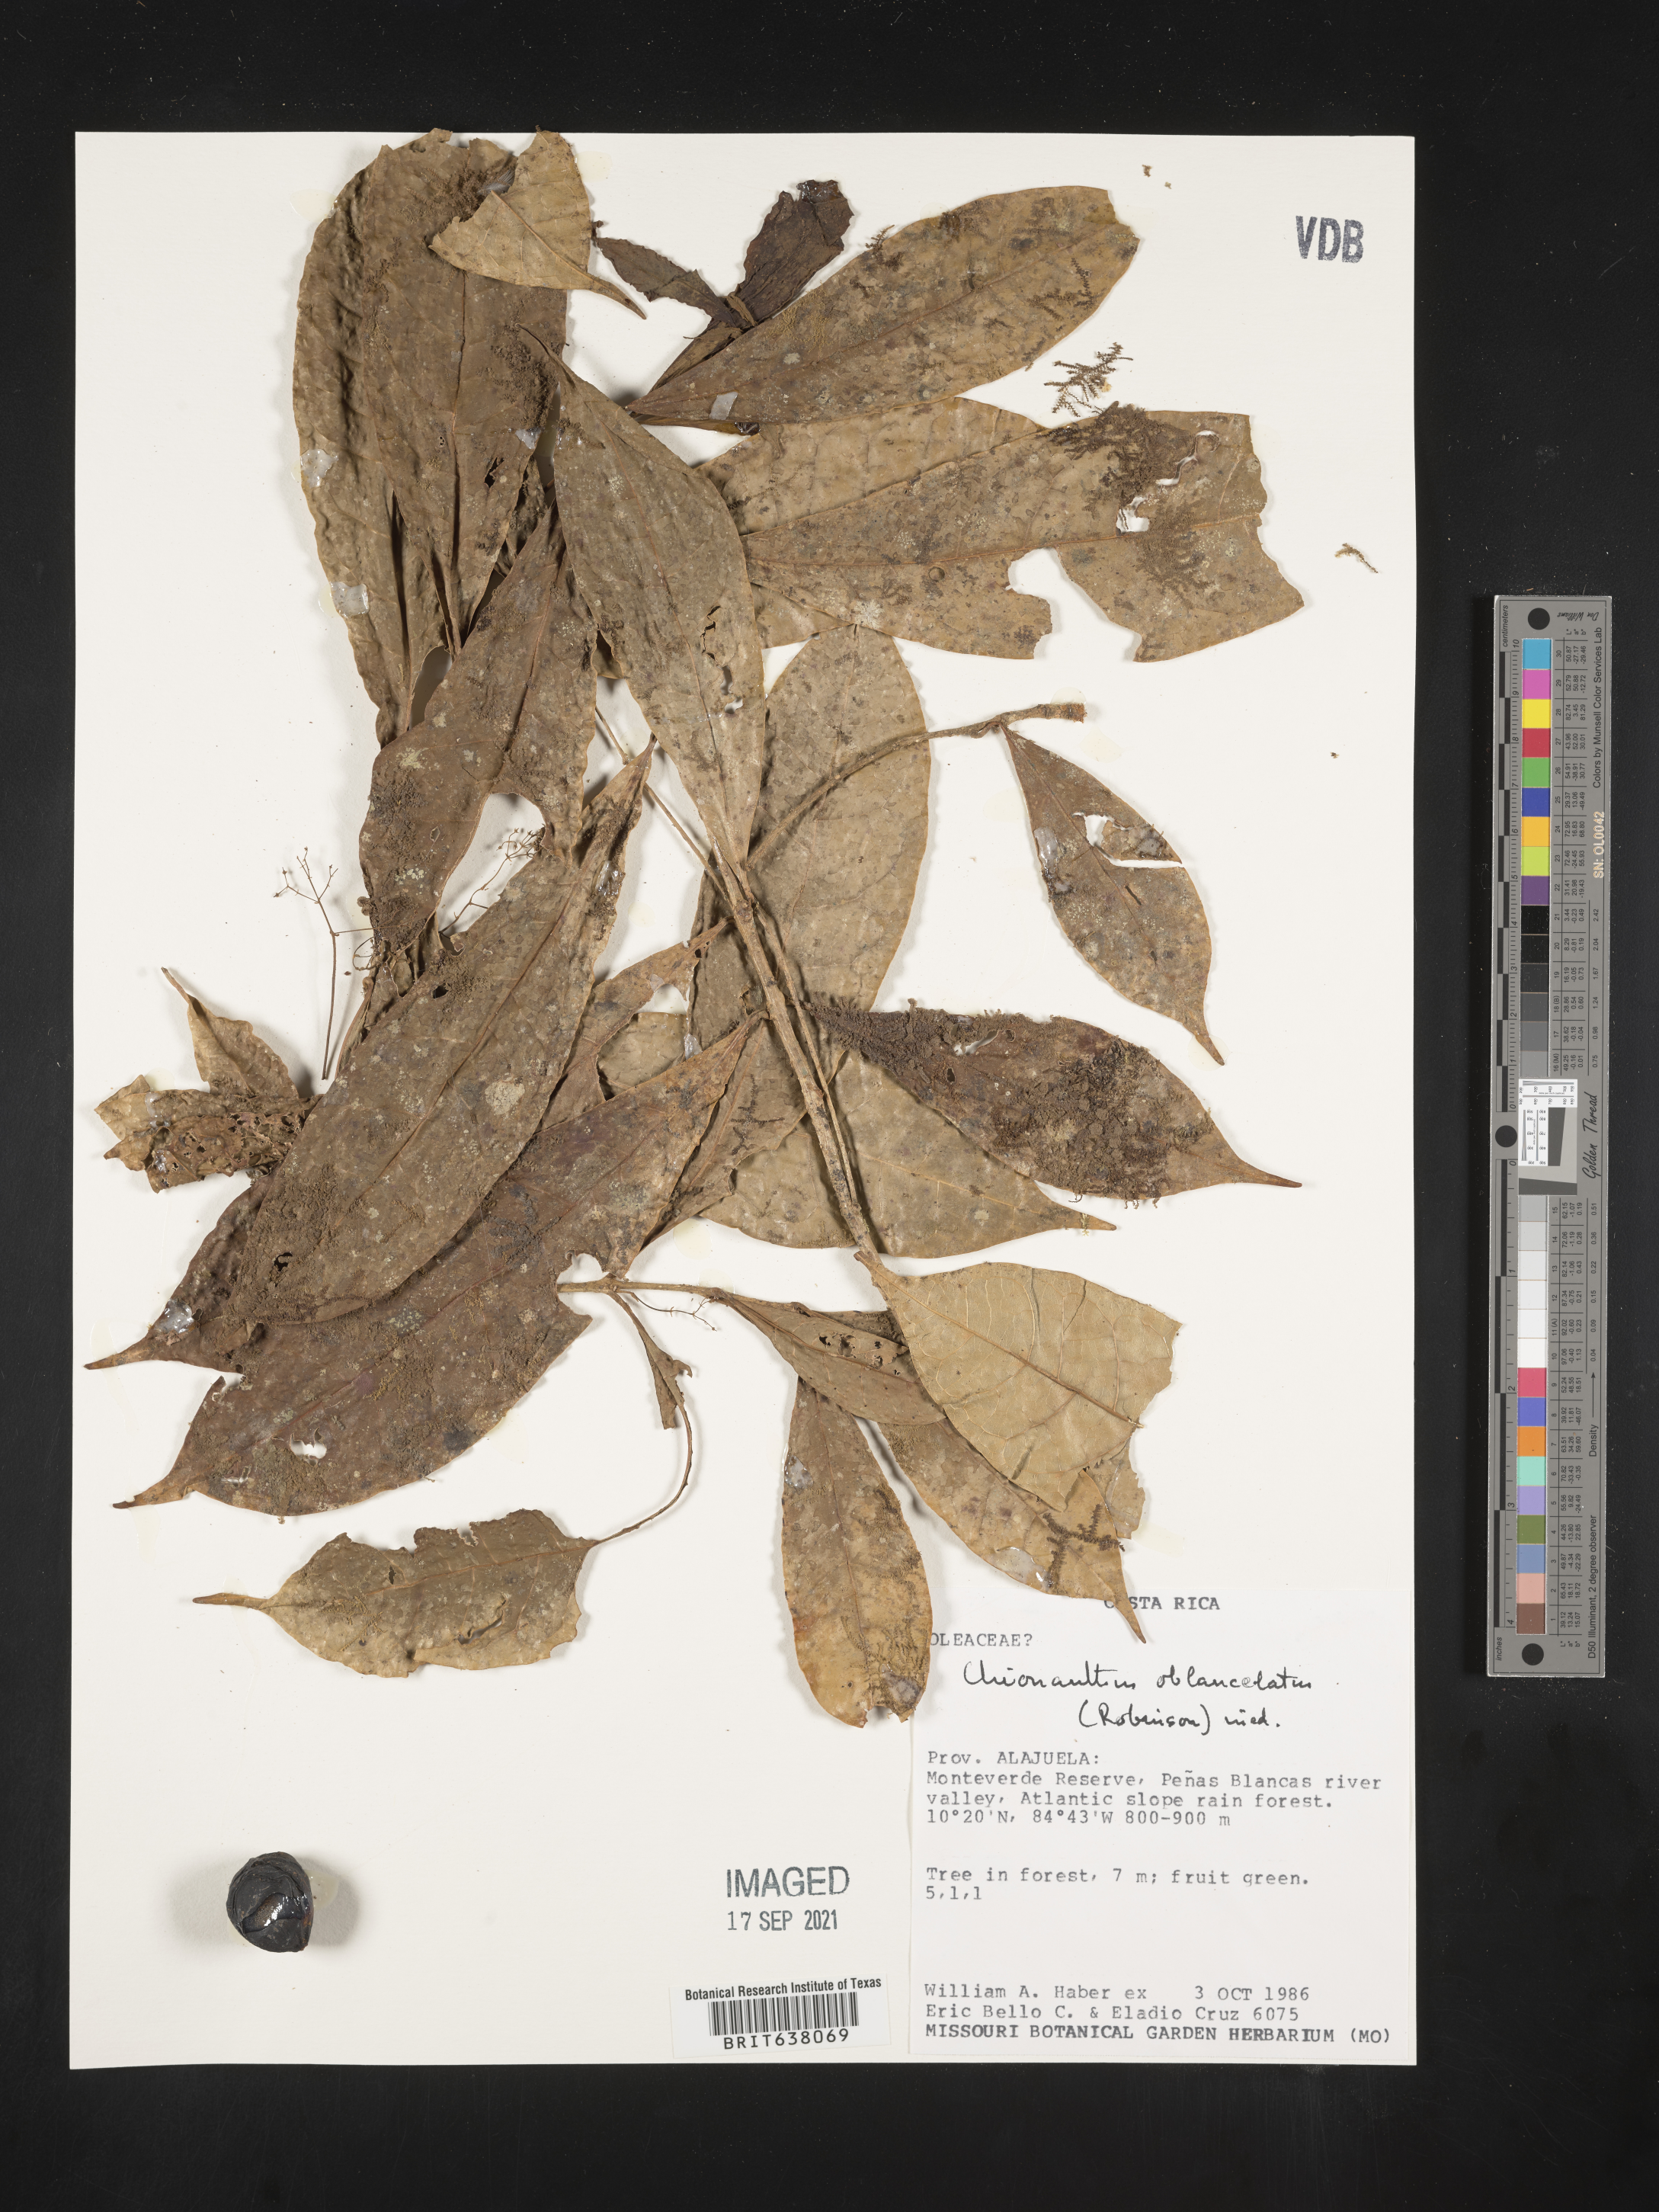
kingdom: Plantae
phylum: Tracheophyta
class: Magnoliopsida
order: Lamiales
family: Oleaceae
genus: Chionanthus
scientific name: Chionanthus
